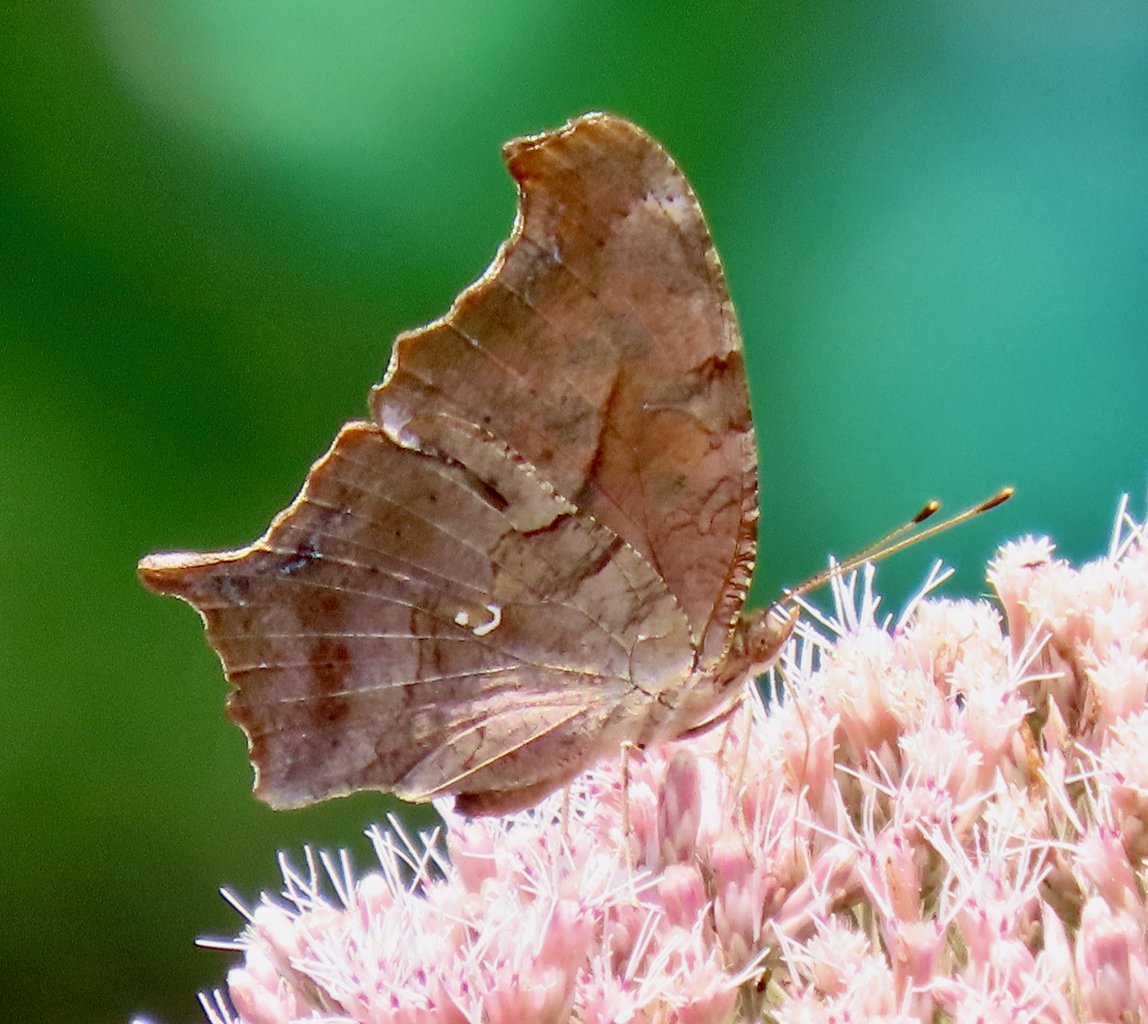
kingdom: Animalia
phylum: Arthropoda
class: Insecta
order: Lepidoptera
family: Nymphalidae
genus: Polygonia
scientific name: Polygonia interrogationis
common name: Question Mark
